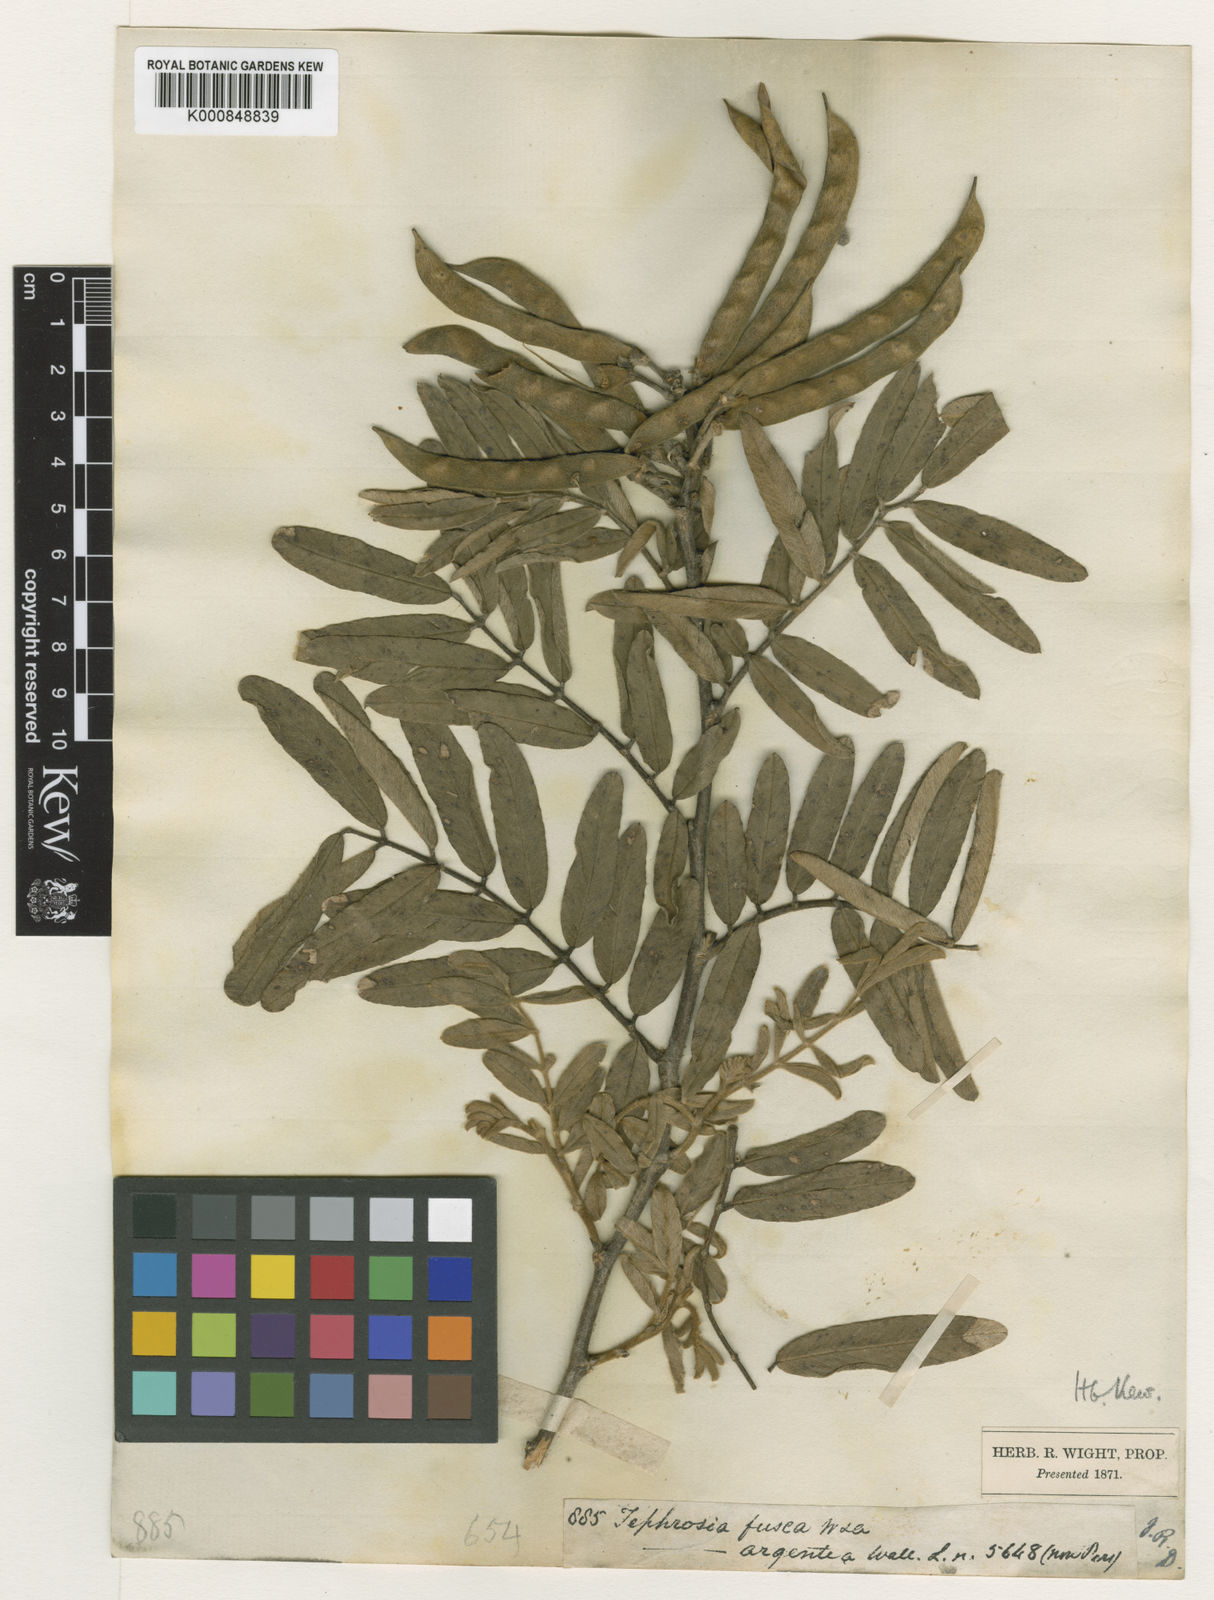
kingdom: Plantae
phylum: Tracheophyta
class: Magnoliopsida
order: Fabales
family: Fabaceae
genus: Tephrosia
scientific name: Tephrosia fusca
